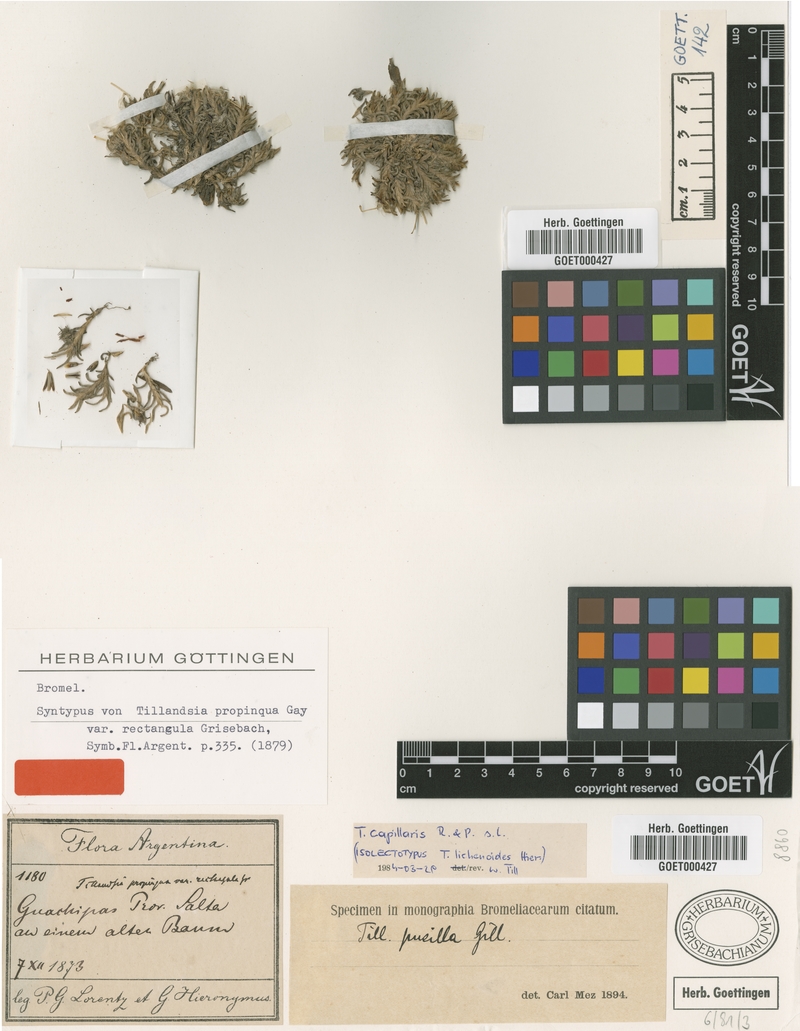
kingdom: Plantae
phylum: Tracheophyta
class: Liliopsida
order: Poales
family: Bromeliaceae
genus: Tillandsia
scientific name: Tillandsia capillaris
